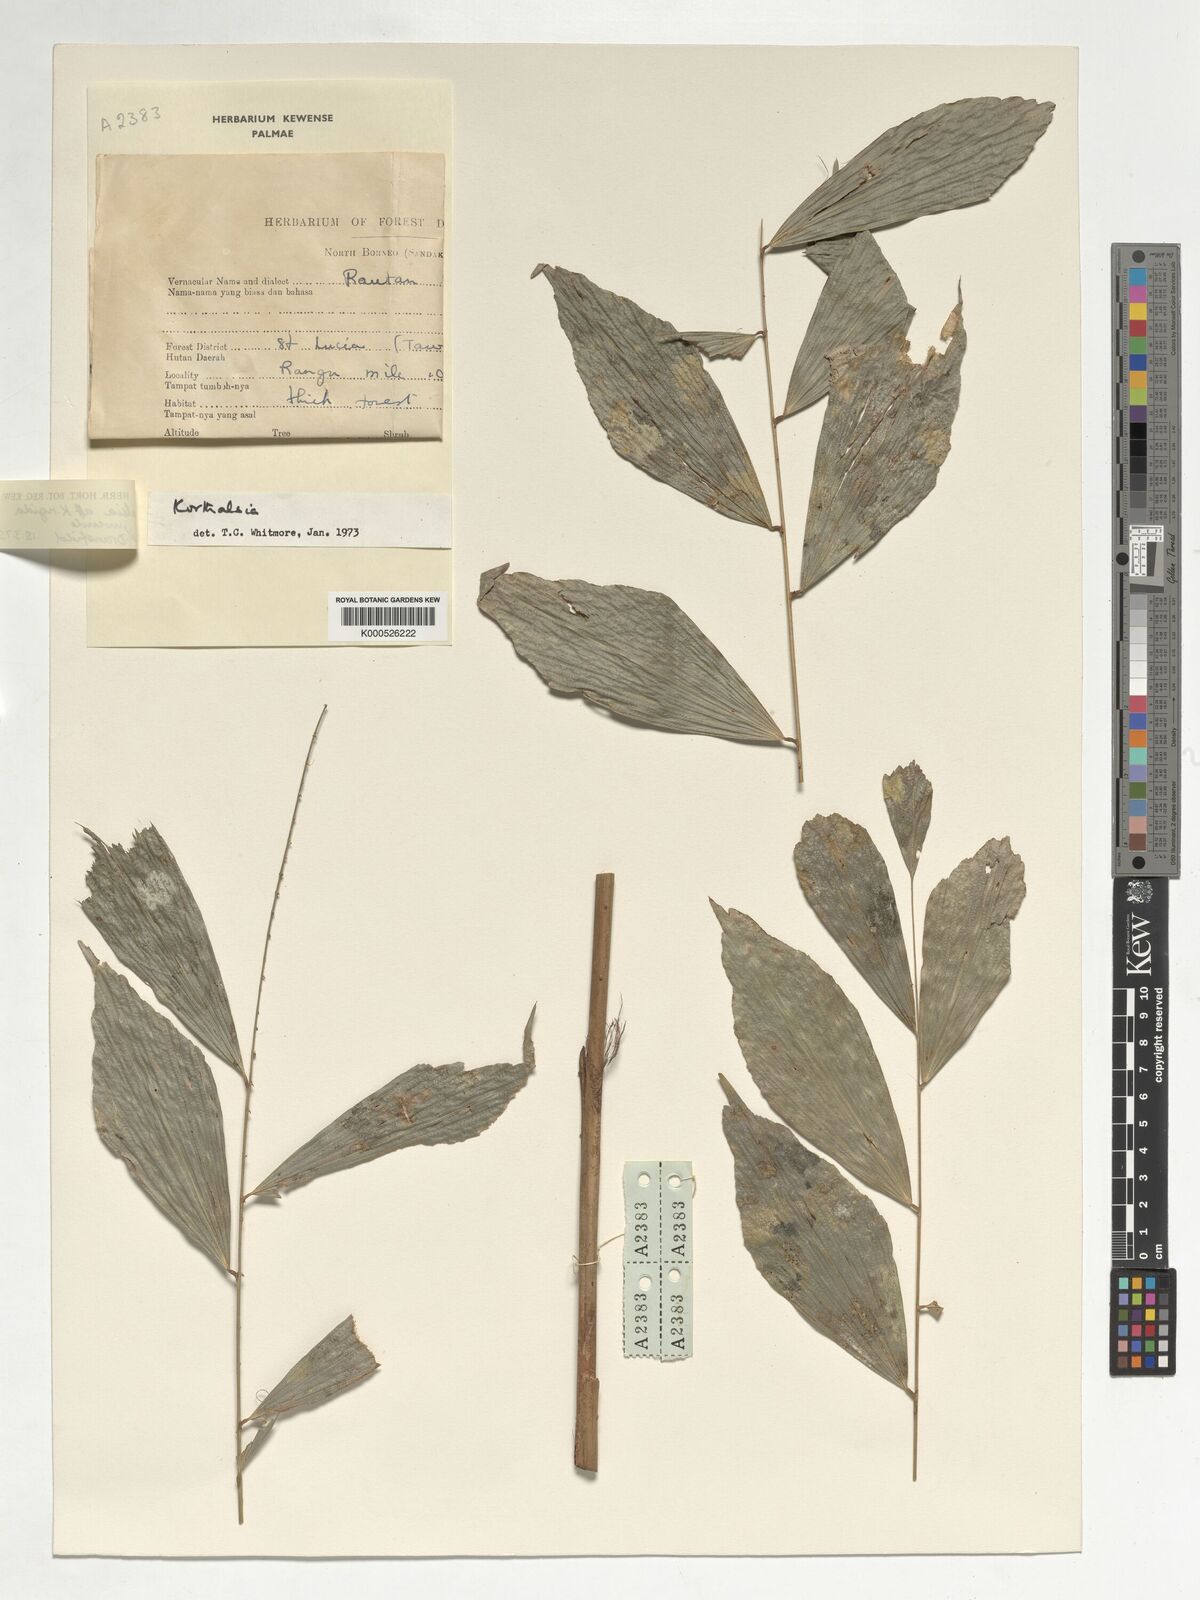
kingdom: Plantae
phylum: Tracheophyta
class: Liliopsida
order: Arecales
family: Arecaceae
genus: Korthalsia
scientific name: Korthalsia rostrata
